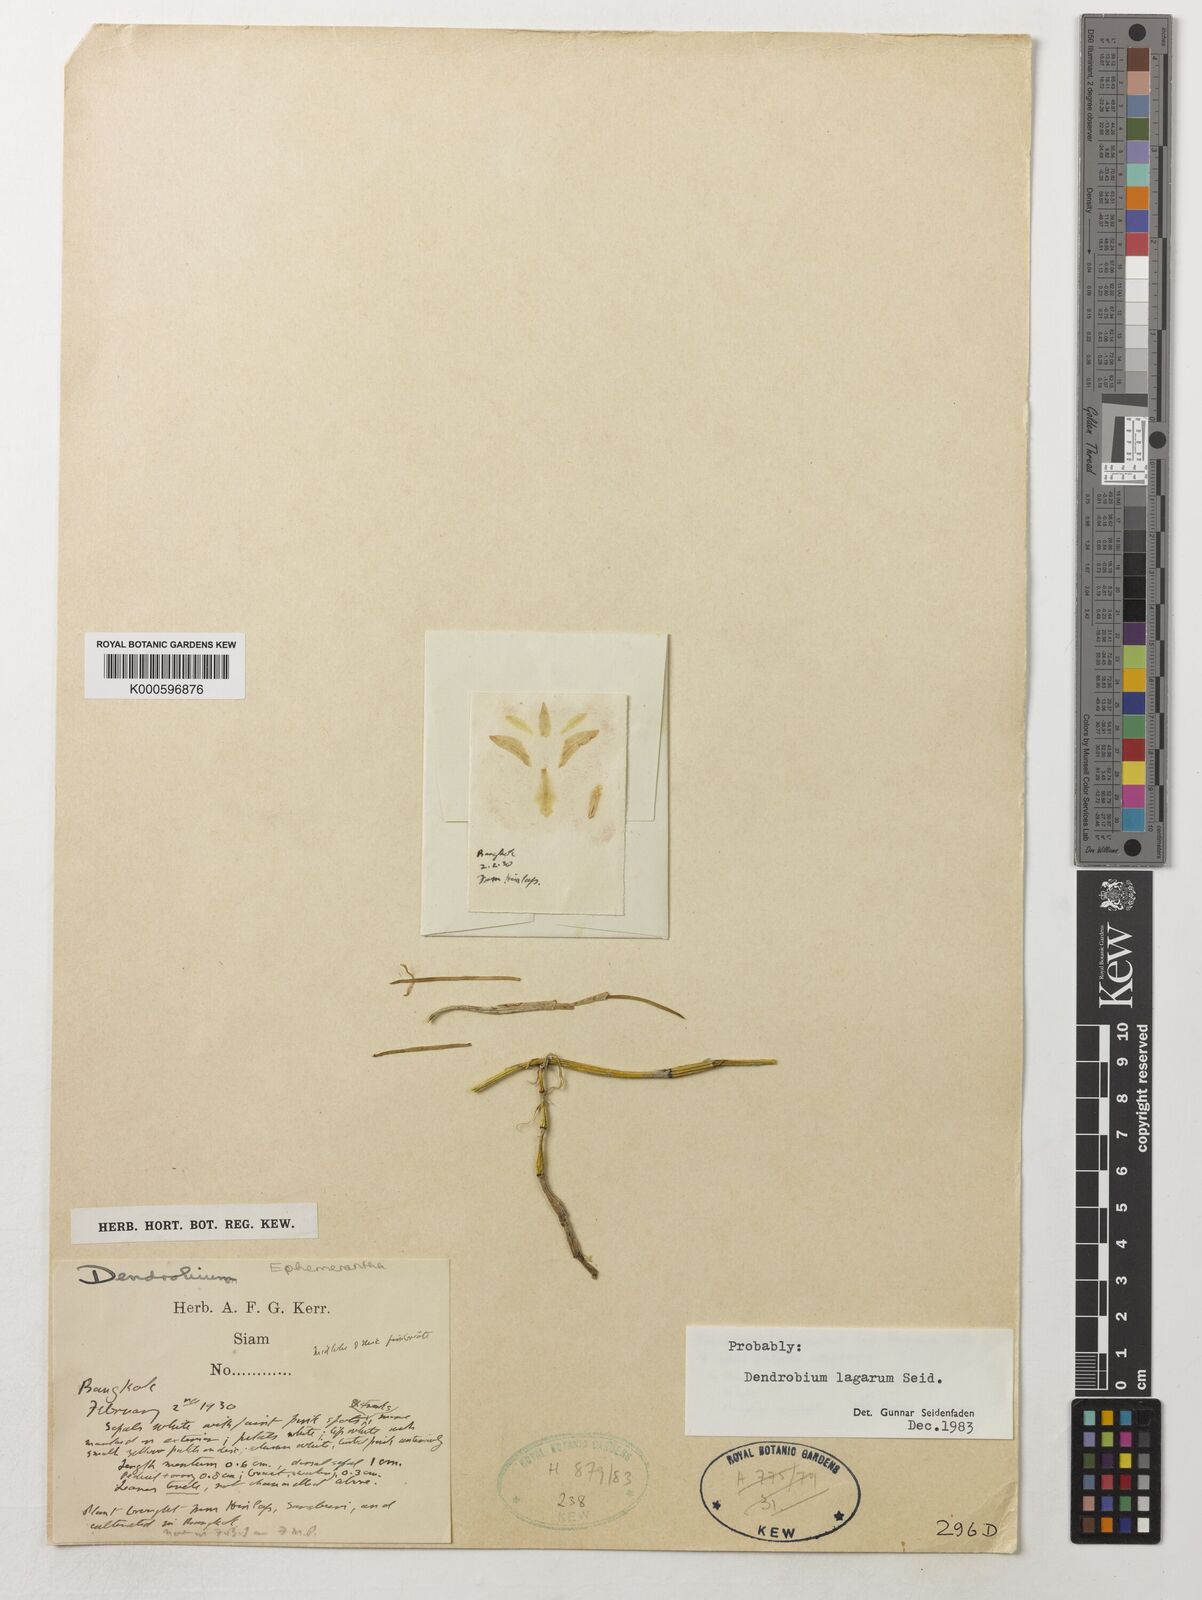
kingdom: Plantae
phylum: Tracheophyta
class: Liliopsida
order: Asparagales
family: Orchidaceae
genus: Dendrobium
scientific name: Dendrobium lagarum
